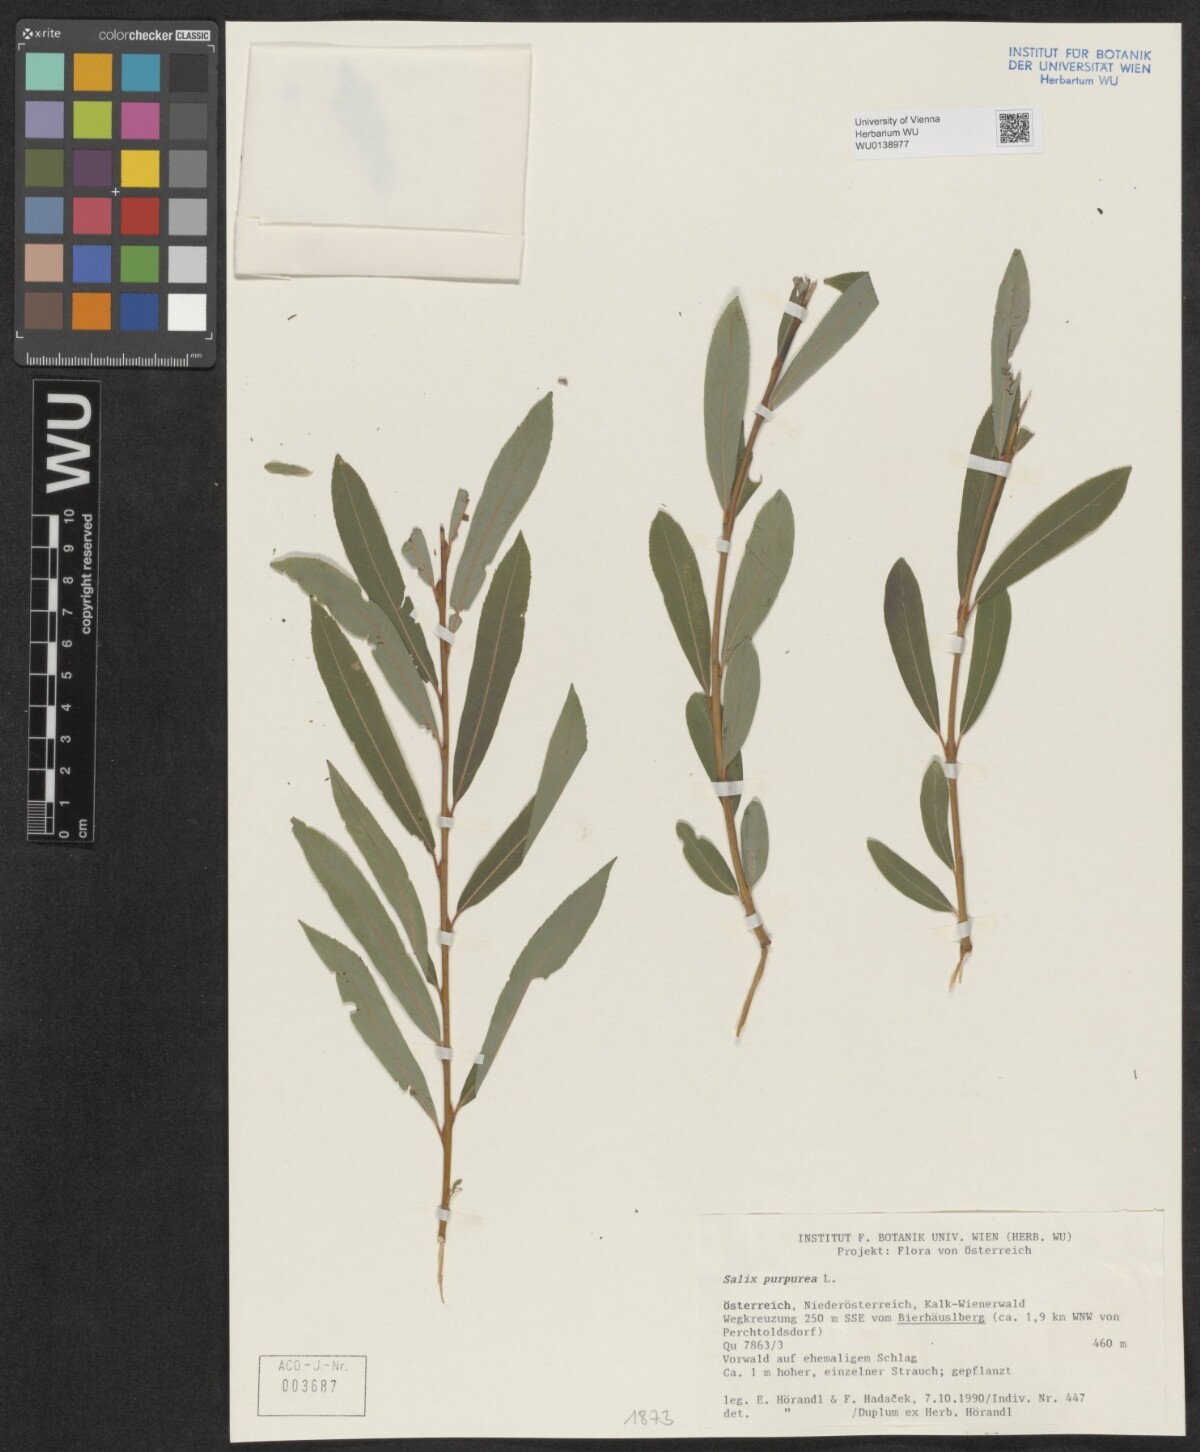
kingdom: Plantae
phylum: Tracheophyta
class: Magnoliopsida
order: Malpighiales
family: Salicaceae
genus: Salix
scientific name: Salix purpurea
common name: Purple willow
